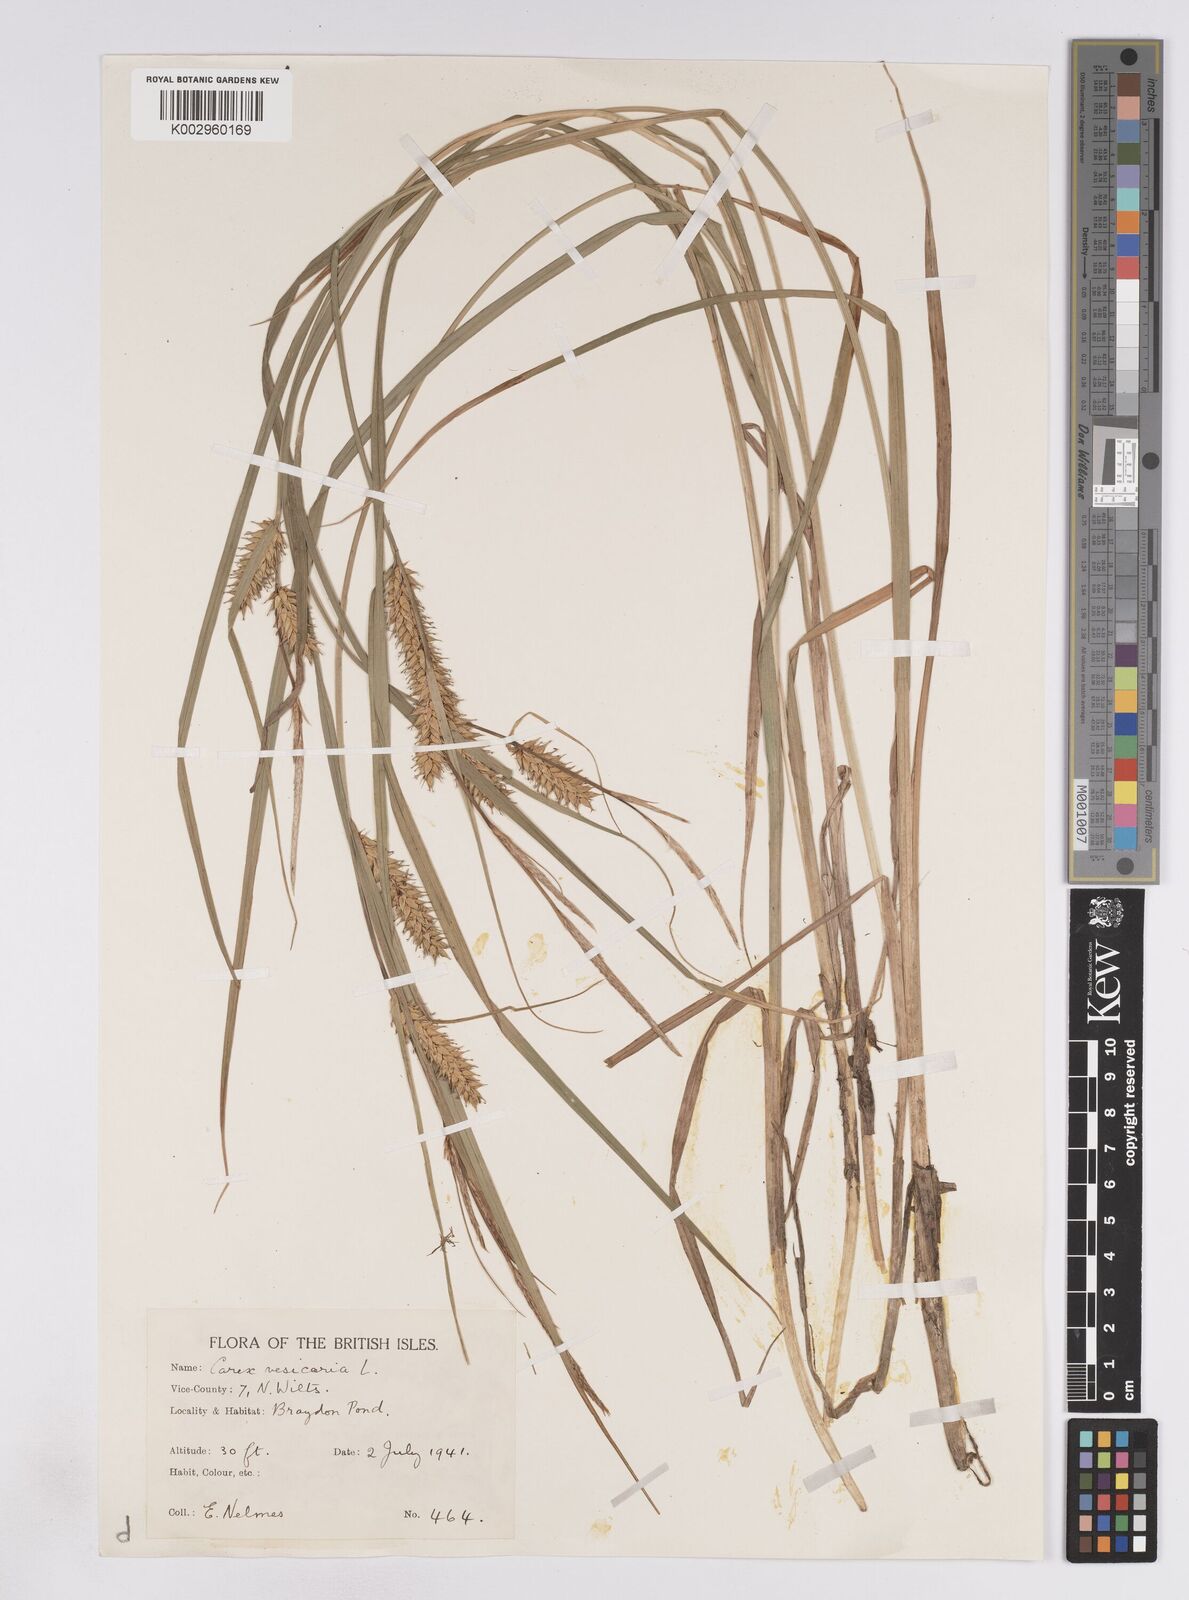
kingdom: Plantae
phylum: Tracheophyta
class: Liliopsida
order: Poales
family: Cyperaceae
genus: Carex
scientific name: Carex vesicaria
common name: Bladder-sedge
